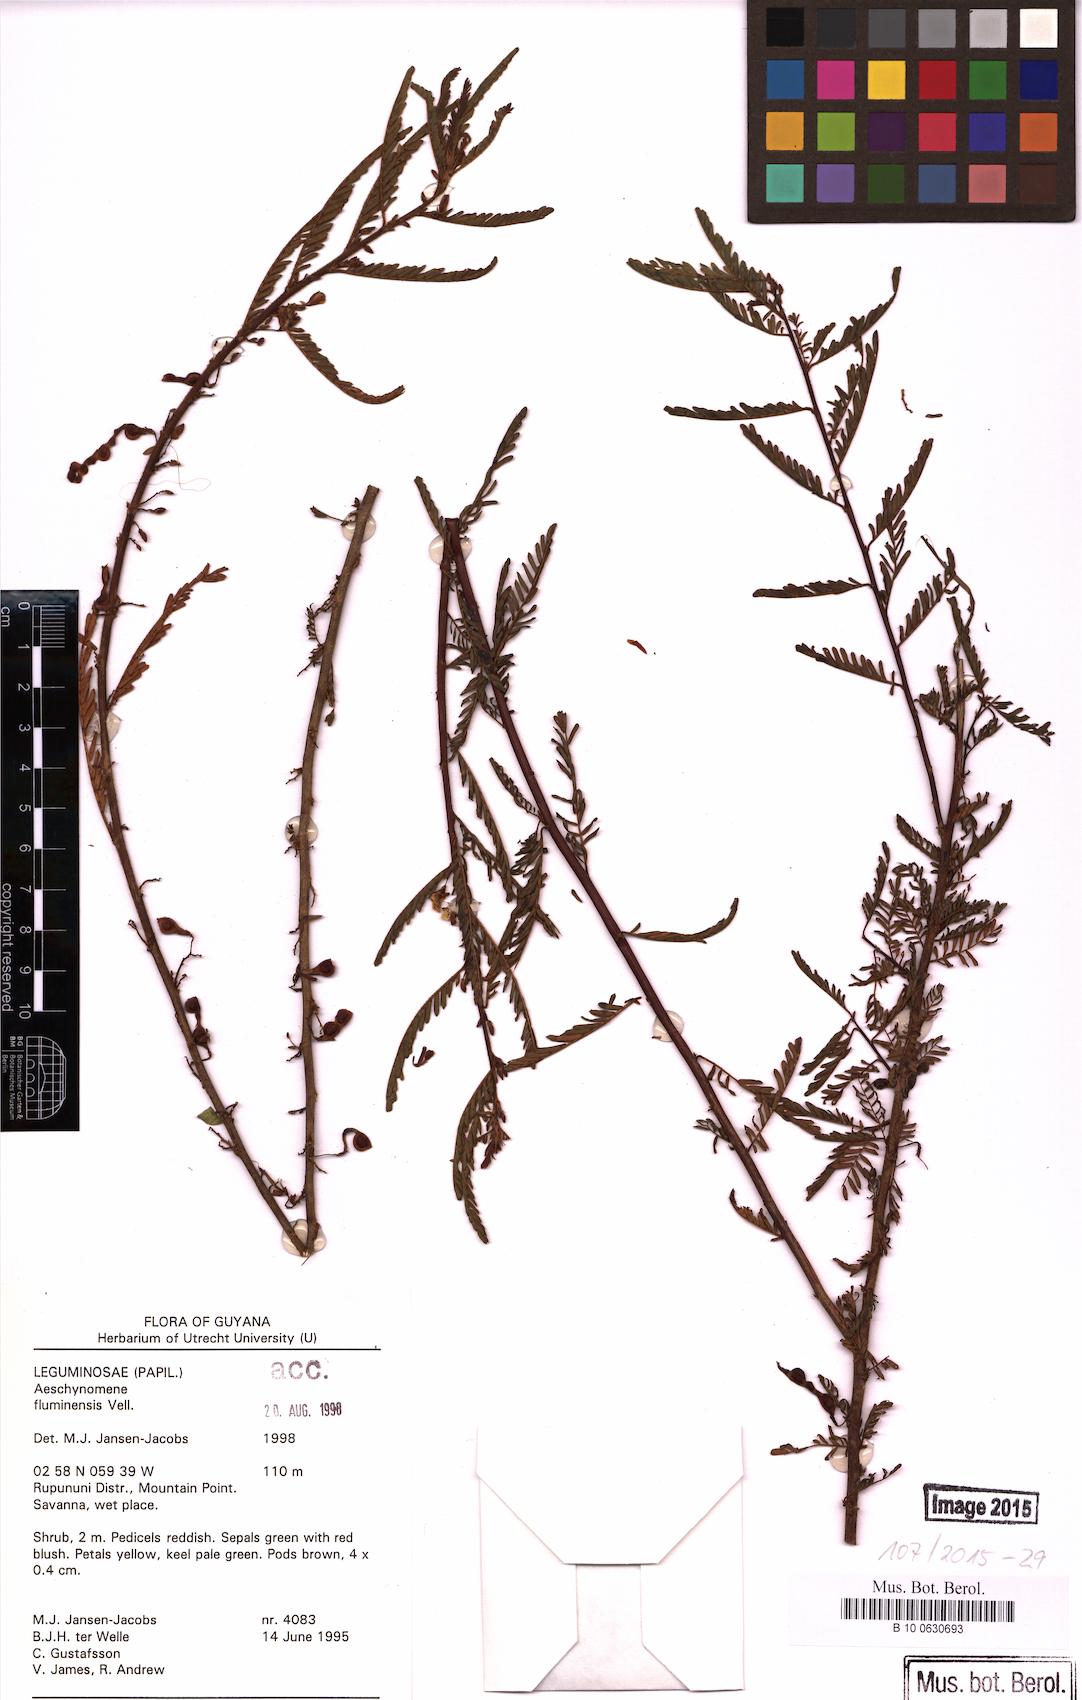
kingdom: Plantae
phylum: Tracheophyta
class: Magnoliopsida
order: Fabales
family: Fabaceae
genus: Aeschynomene
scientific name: Aeschynomene fluminensis
